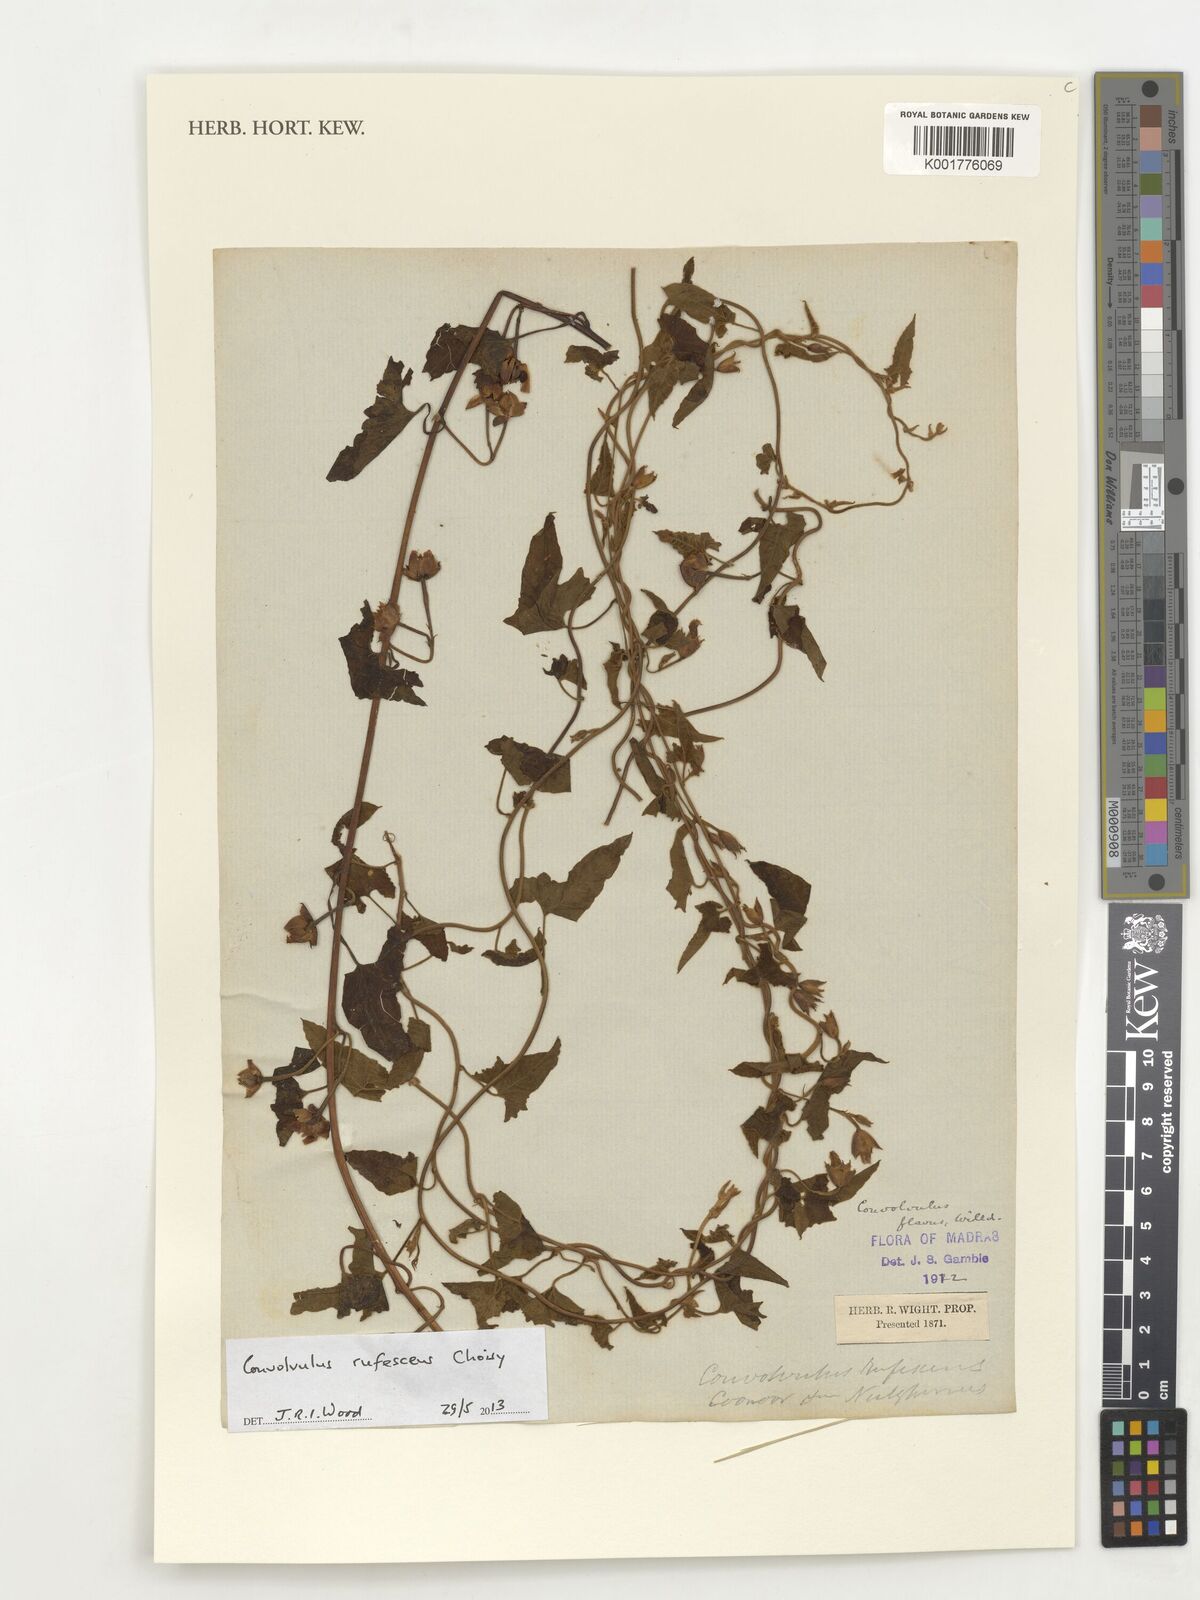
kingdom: Plantae
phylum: Tracheophyta
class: Magnoliopsida
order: Solanales
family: Convolvulaceae
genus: Convolvulus
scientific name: Convolvulus arvensis
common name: Field bindweed
